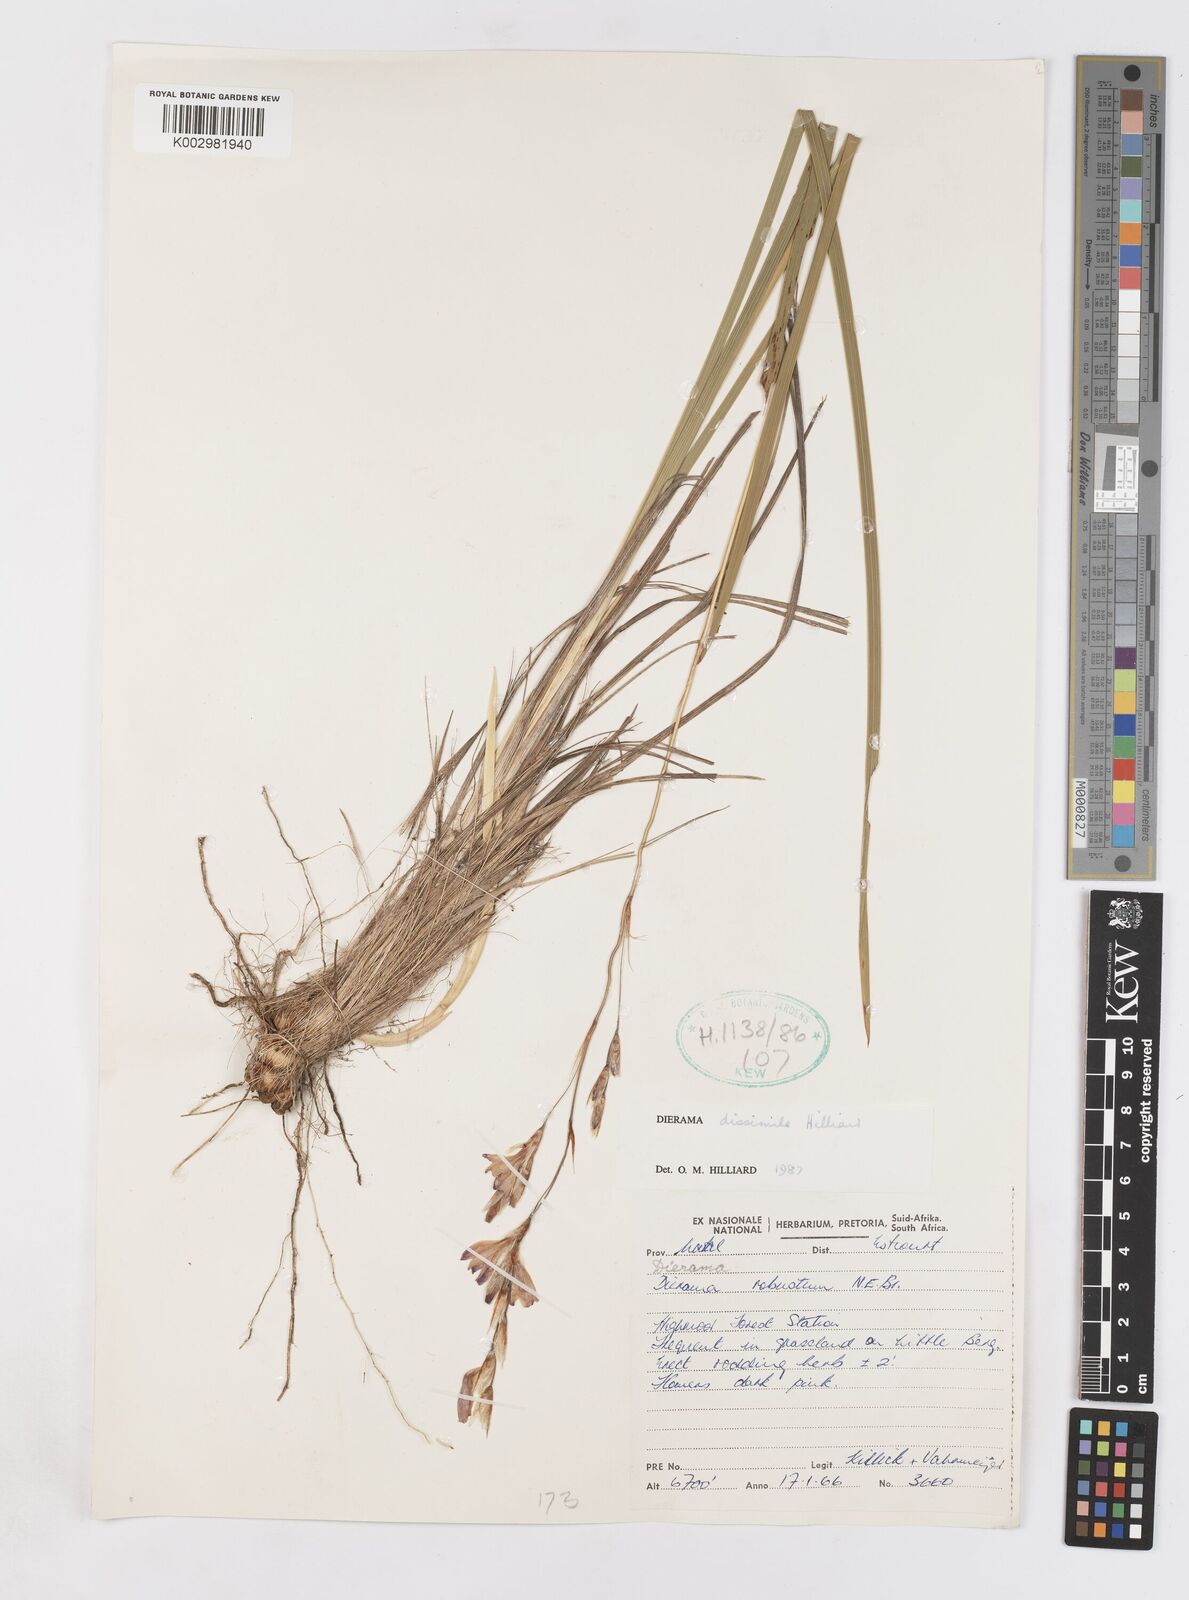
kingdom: Plantae
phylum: Tracheophyta
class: Liliopsida
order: Asparagales
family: Iridaceae
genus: Dierama
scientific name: Dierama dissimile
